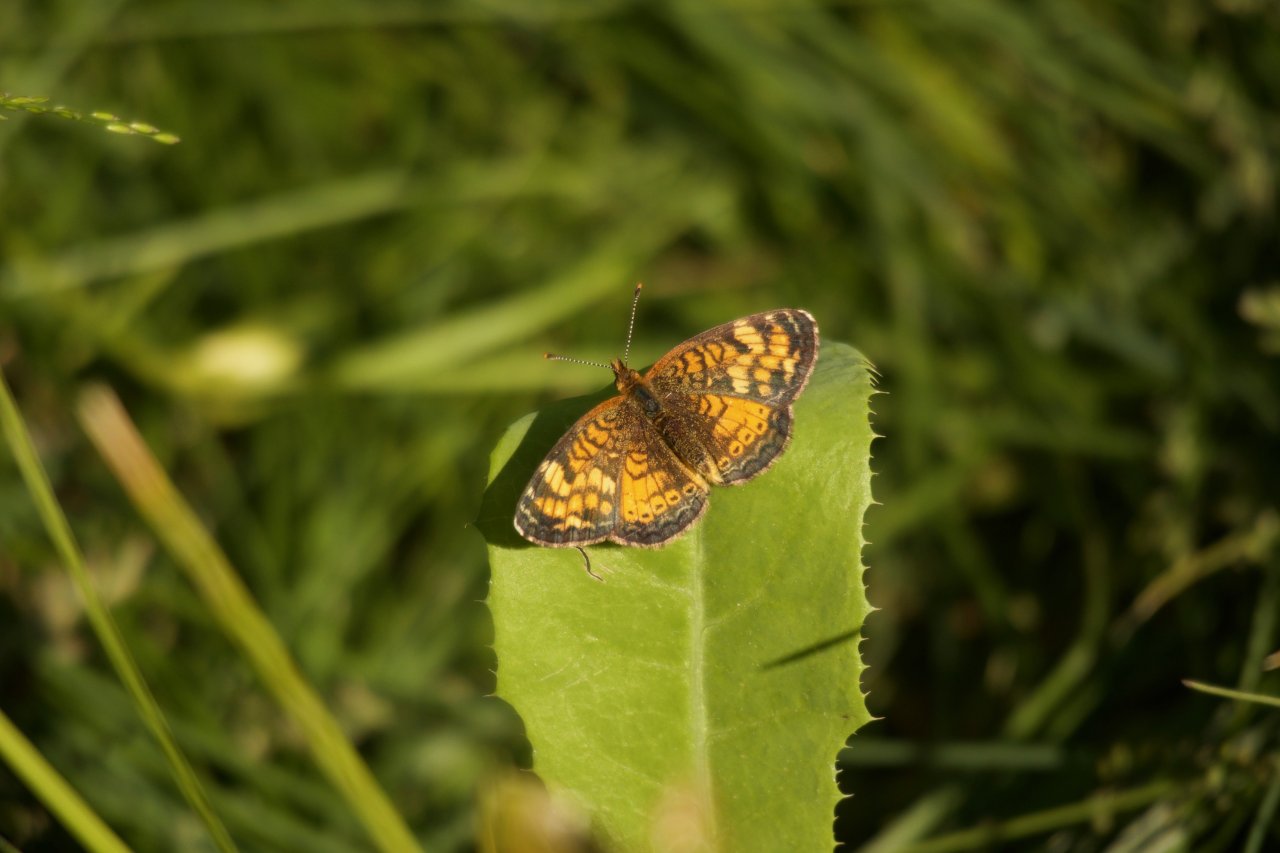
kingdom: Animalia
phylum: Arthropoda
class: Insecta
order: Lepidoptera
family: Nymphalidae
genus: Phyciodes
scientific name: Phyciodes tharos
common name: Northern Crescent
